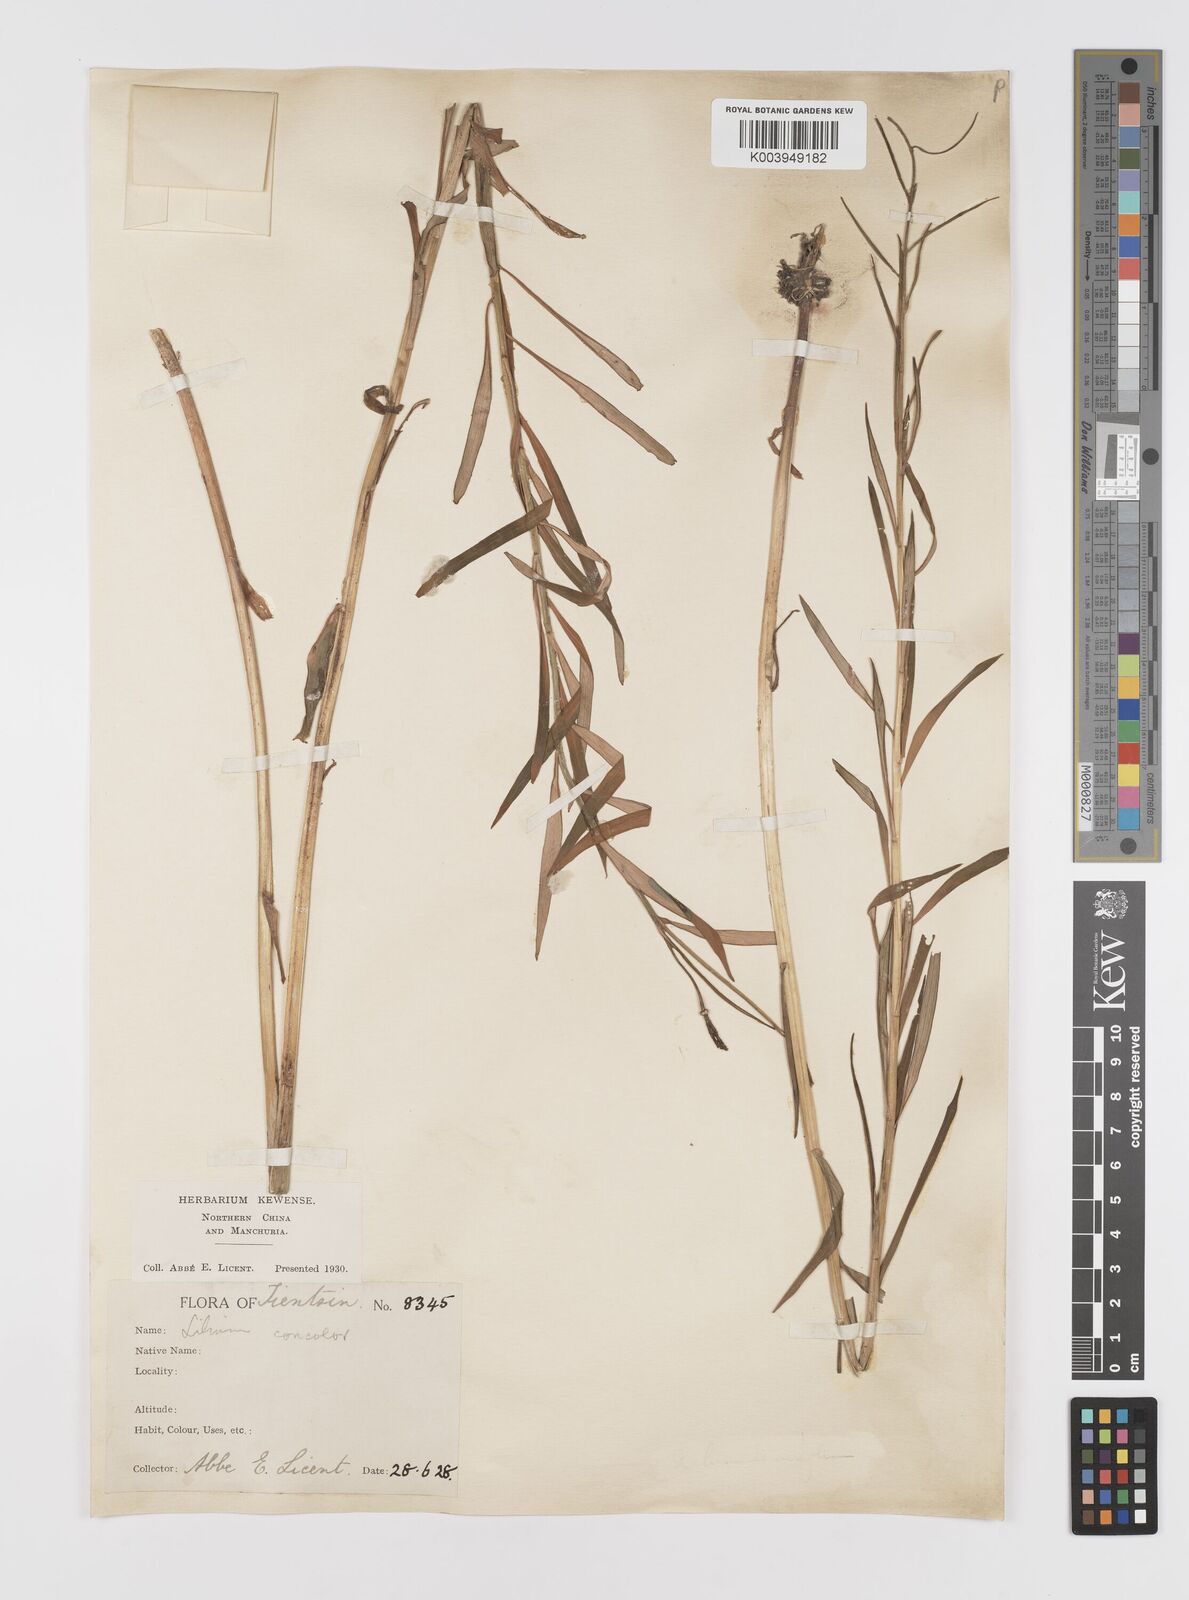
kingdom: Plantae
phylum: Tracheophyta
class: Liliopsida
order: Liliales
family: Liliaceae
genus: Lilium
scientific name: Lilium concolor
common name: Morning-star lily
